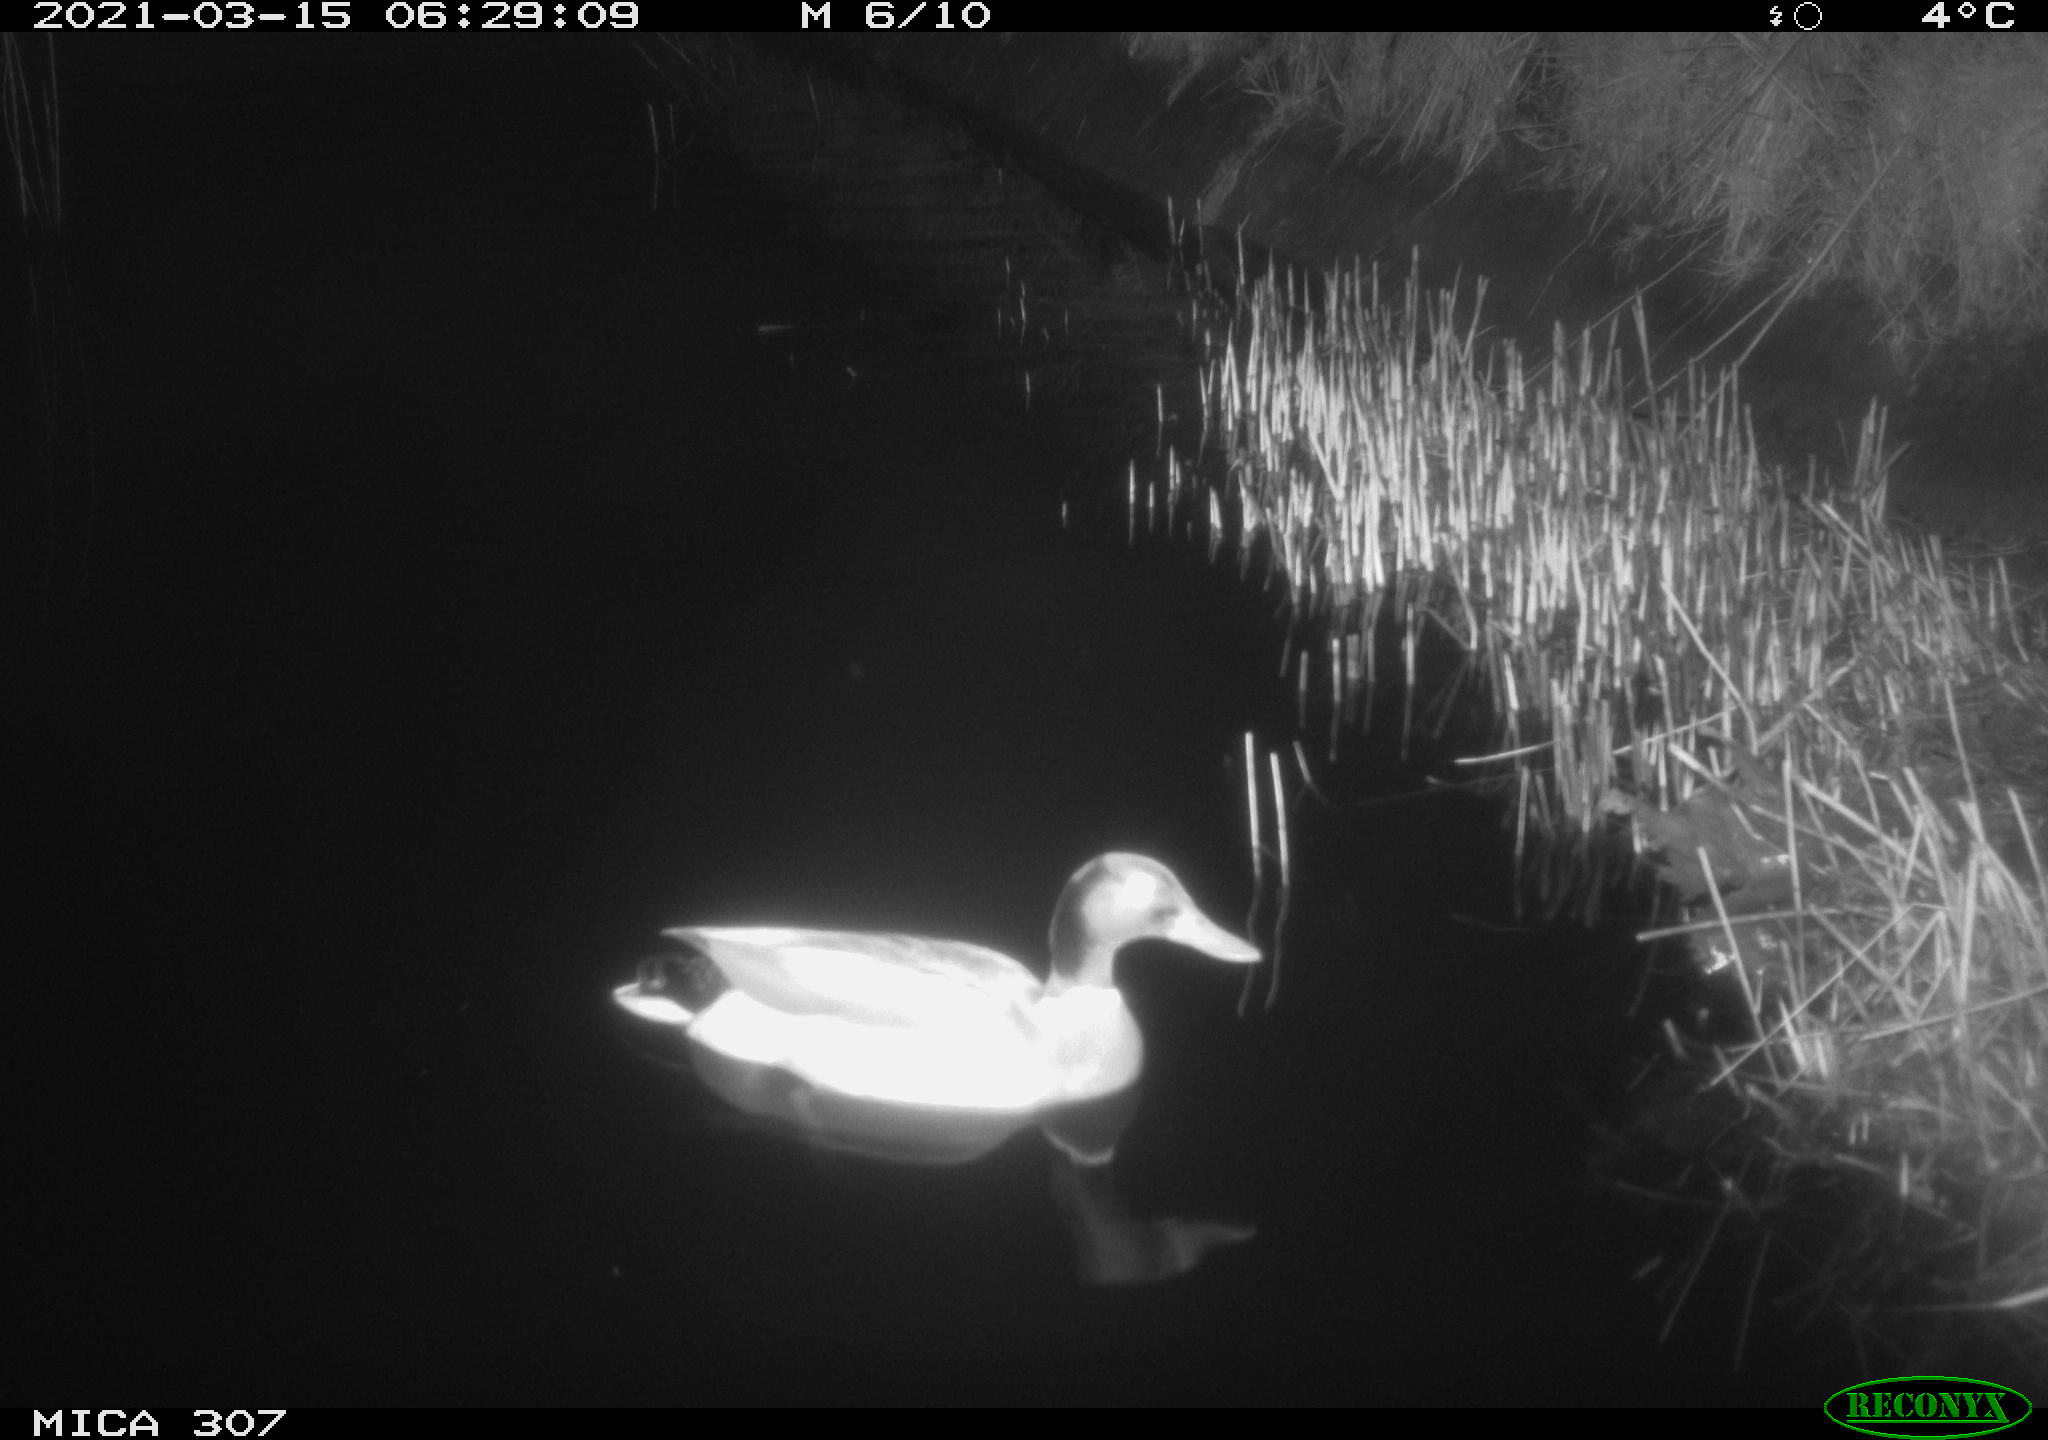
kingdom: Animalia
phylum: Chordata
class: Aves
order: Anseriformes
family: Anatidae
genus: Anas
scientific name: Anas platyrhynchos
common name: Mallard
